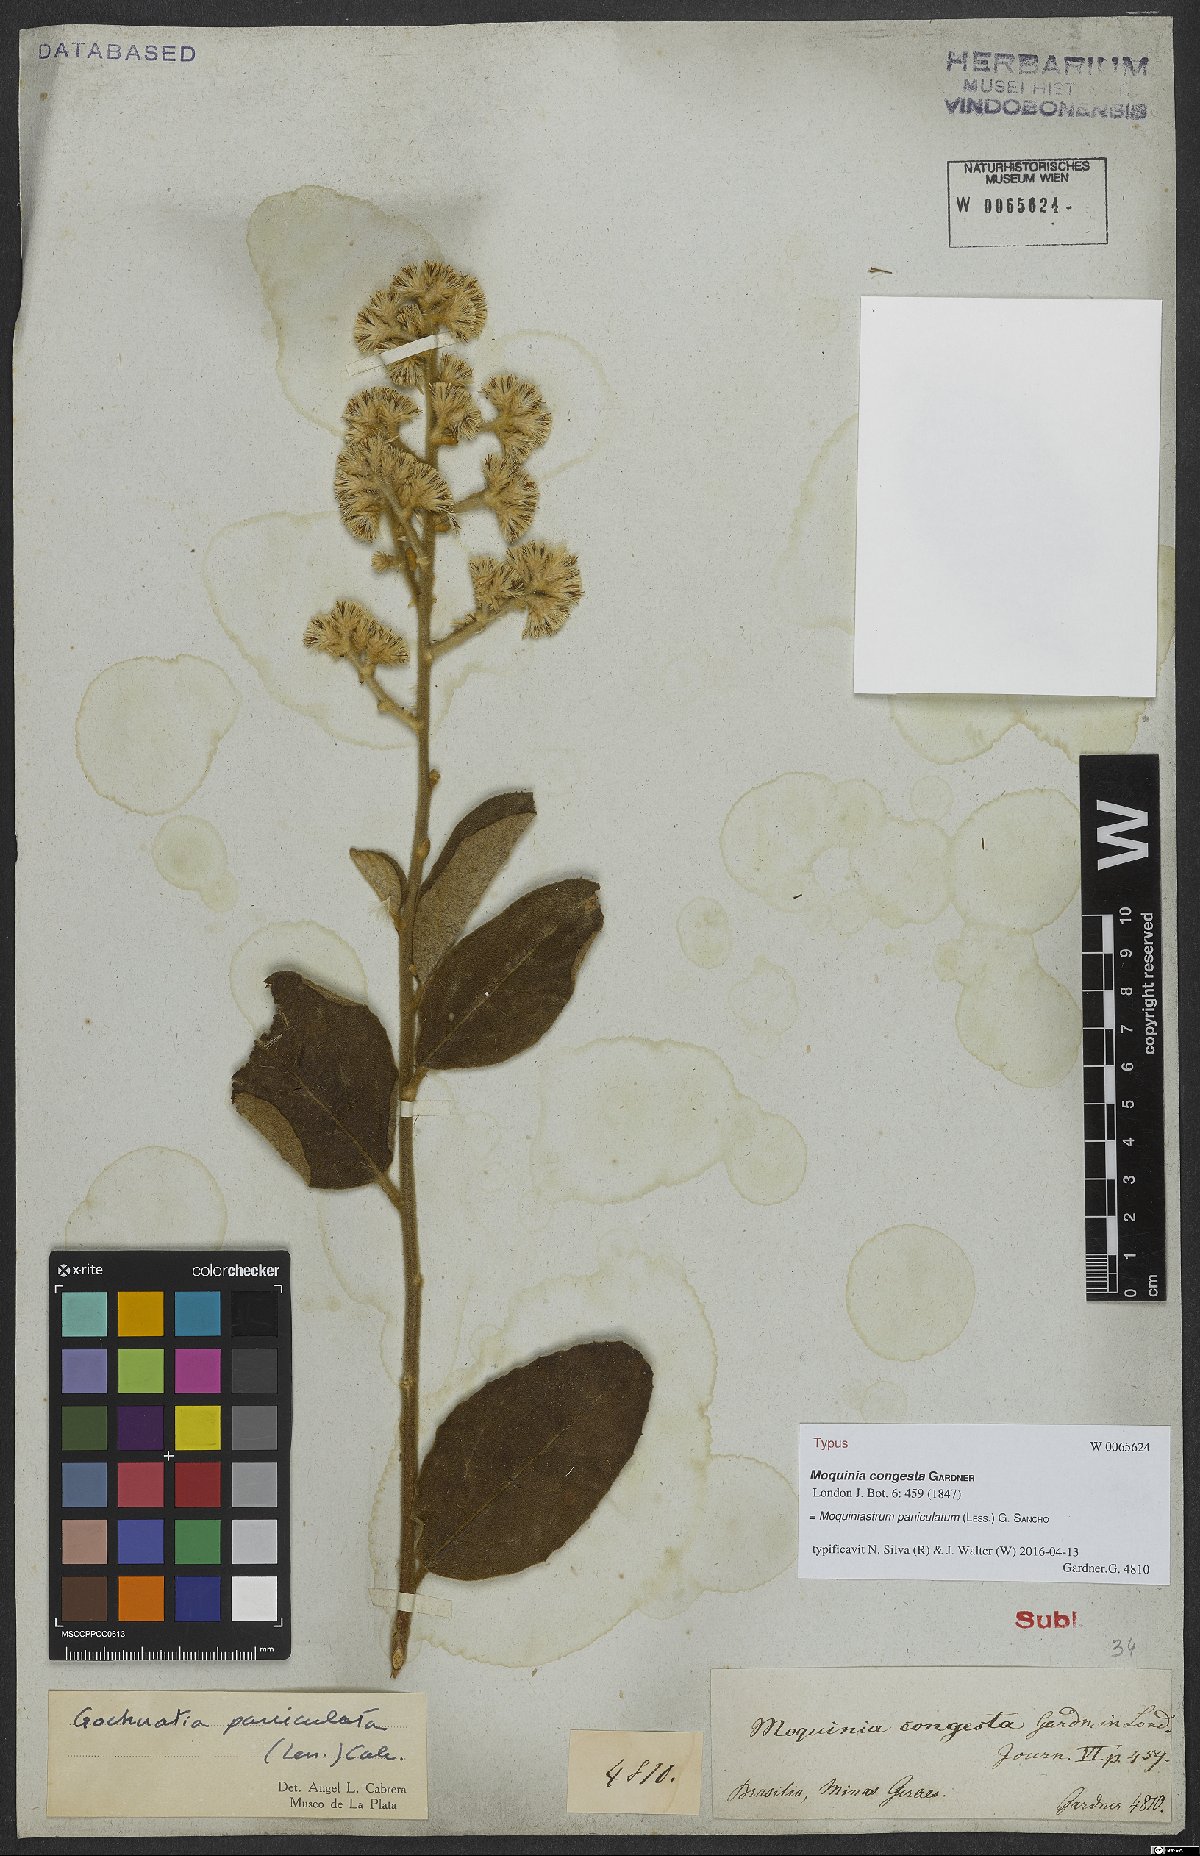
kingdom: Plantae
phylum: Tracheophyta
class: Magnoliopsida
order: Asterales
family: Asteraceae
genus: Moquiniastrum
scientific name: Moquiniastrum paniculatum
